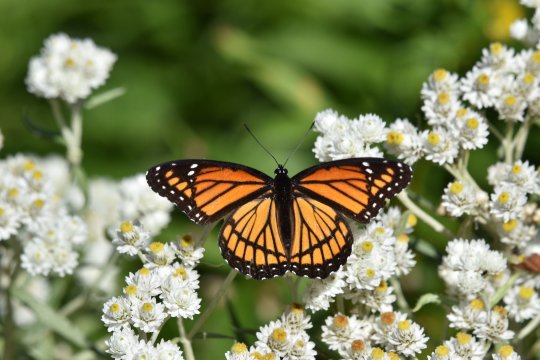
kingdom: Animalia
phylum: Arthropoda
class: Insecta
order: Lepidoptera
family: Nymphalidae
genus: Limenitis
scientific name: Limenitis archippus
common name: Viceroy
